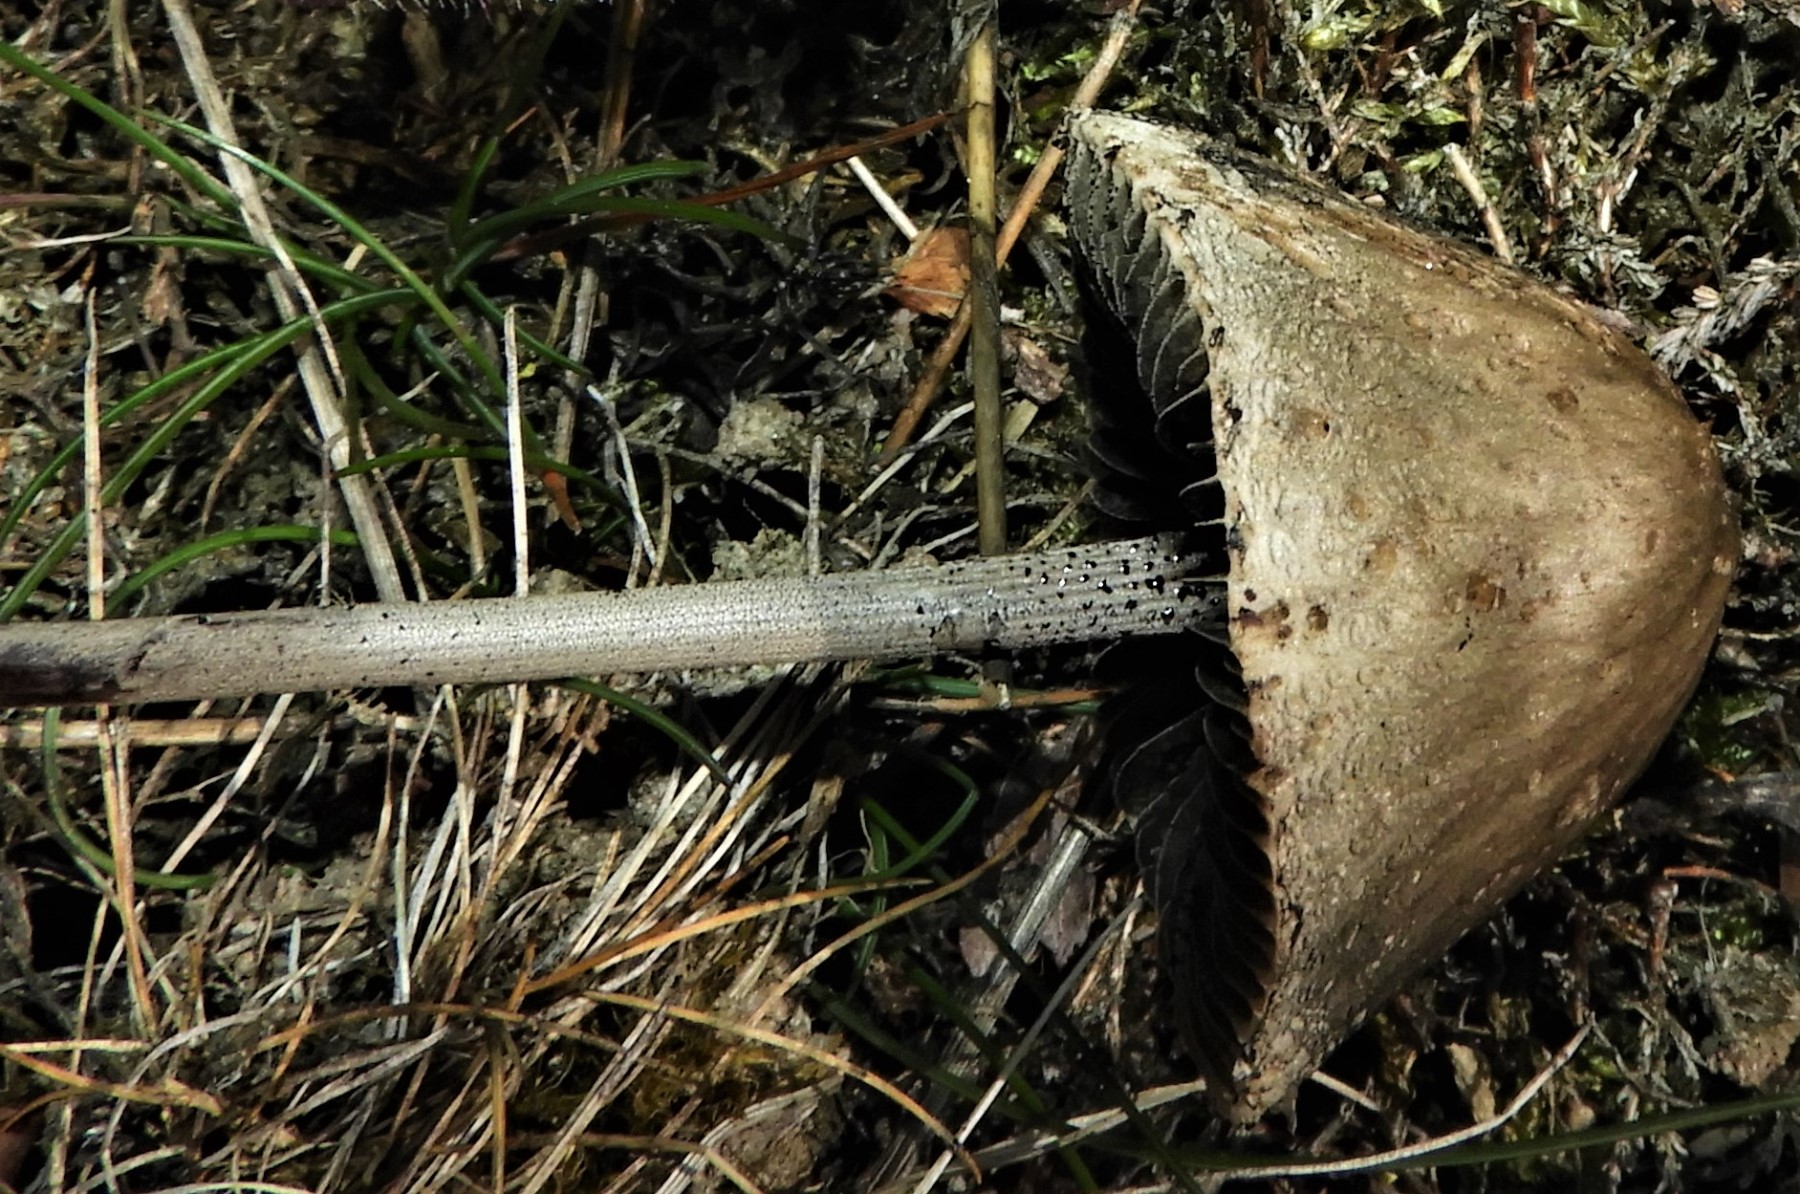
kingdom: Fungi
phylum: Basidiomycota
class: Agaricomycetes
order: Agaricales
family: Bolbitiaceae
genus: Panaeolus
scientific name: Panaeolus papilionaceus
